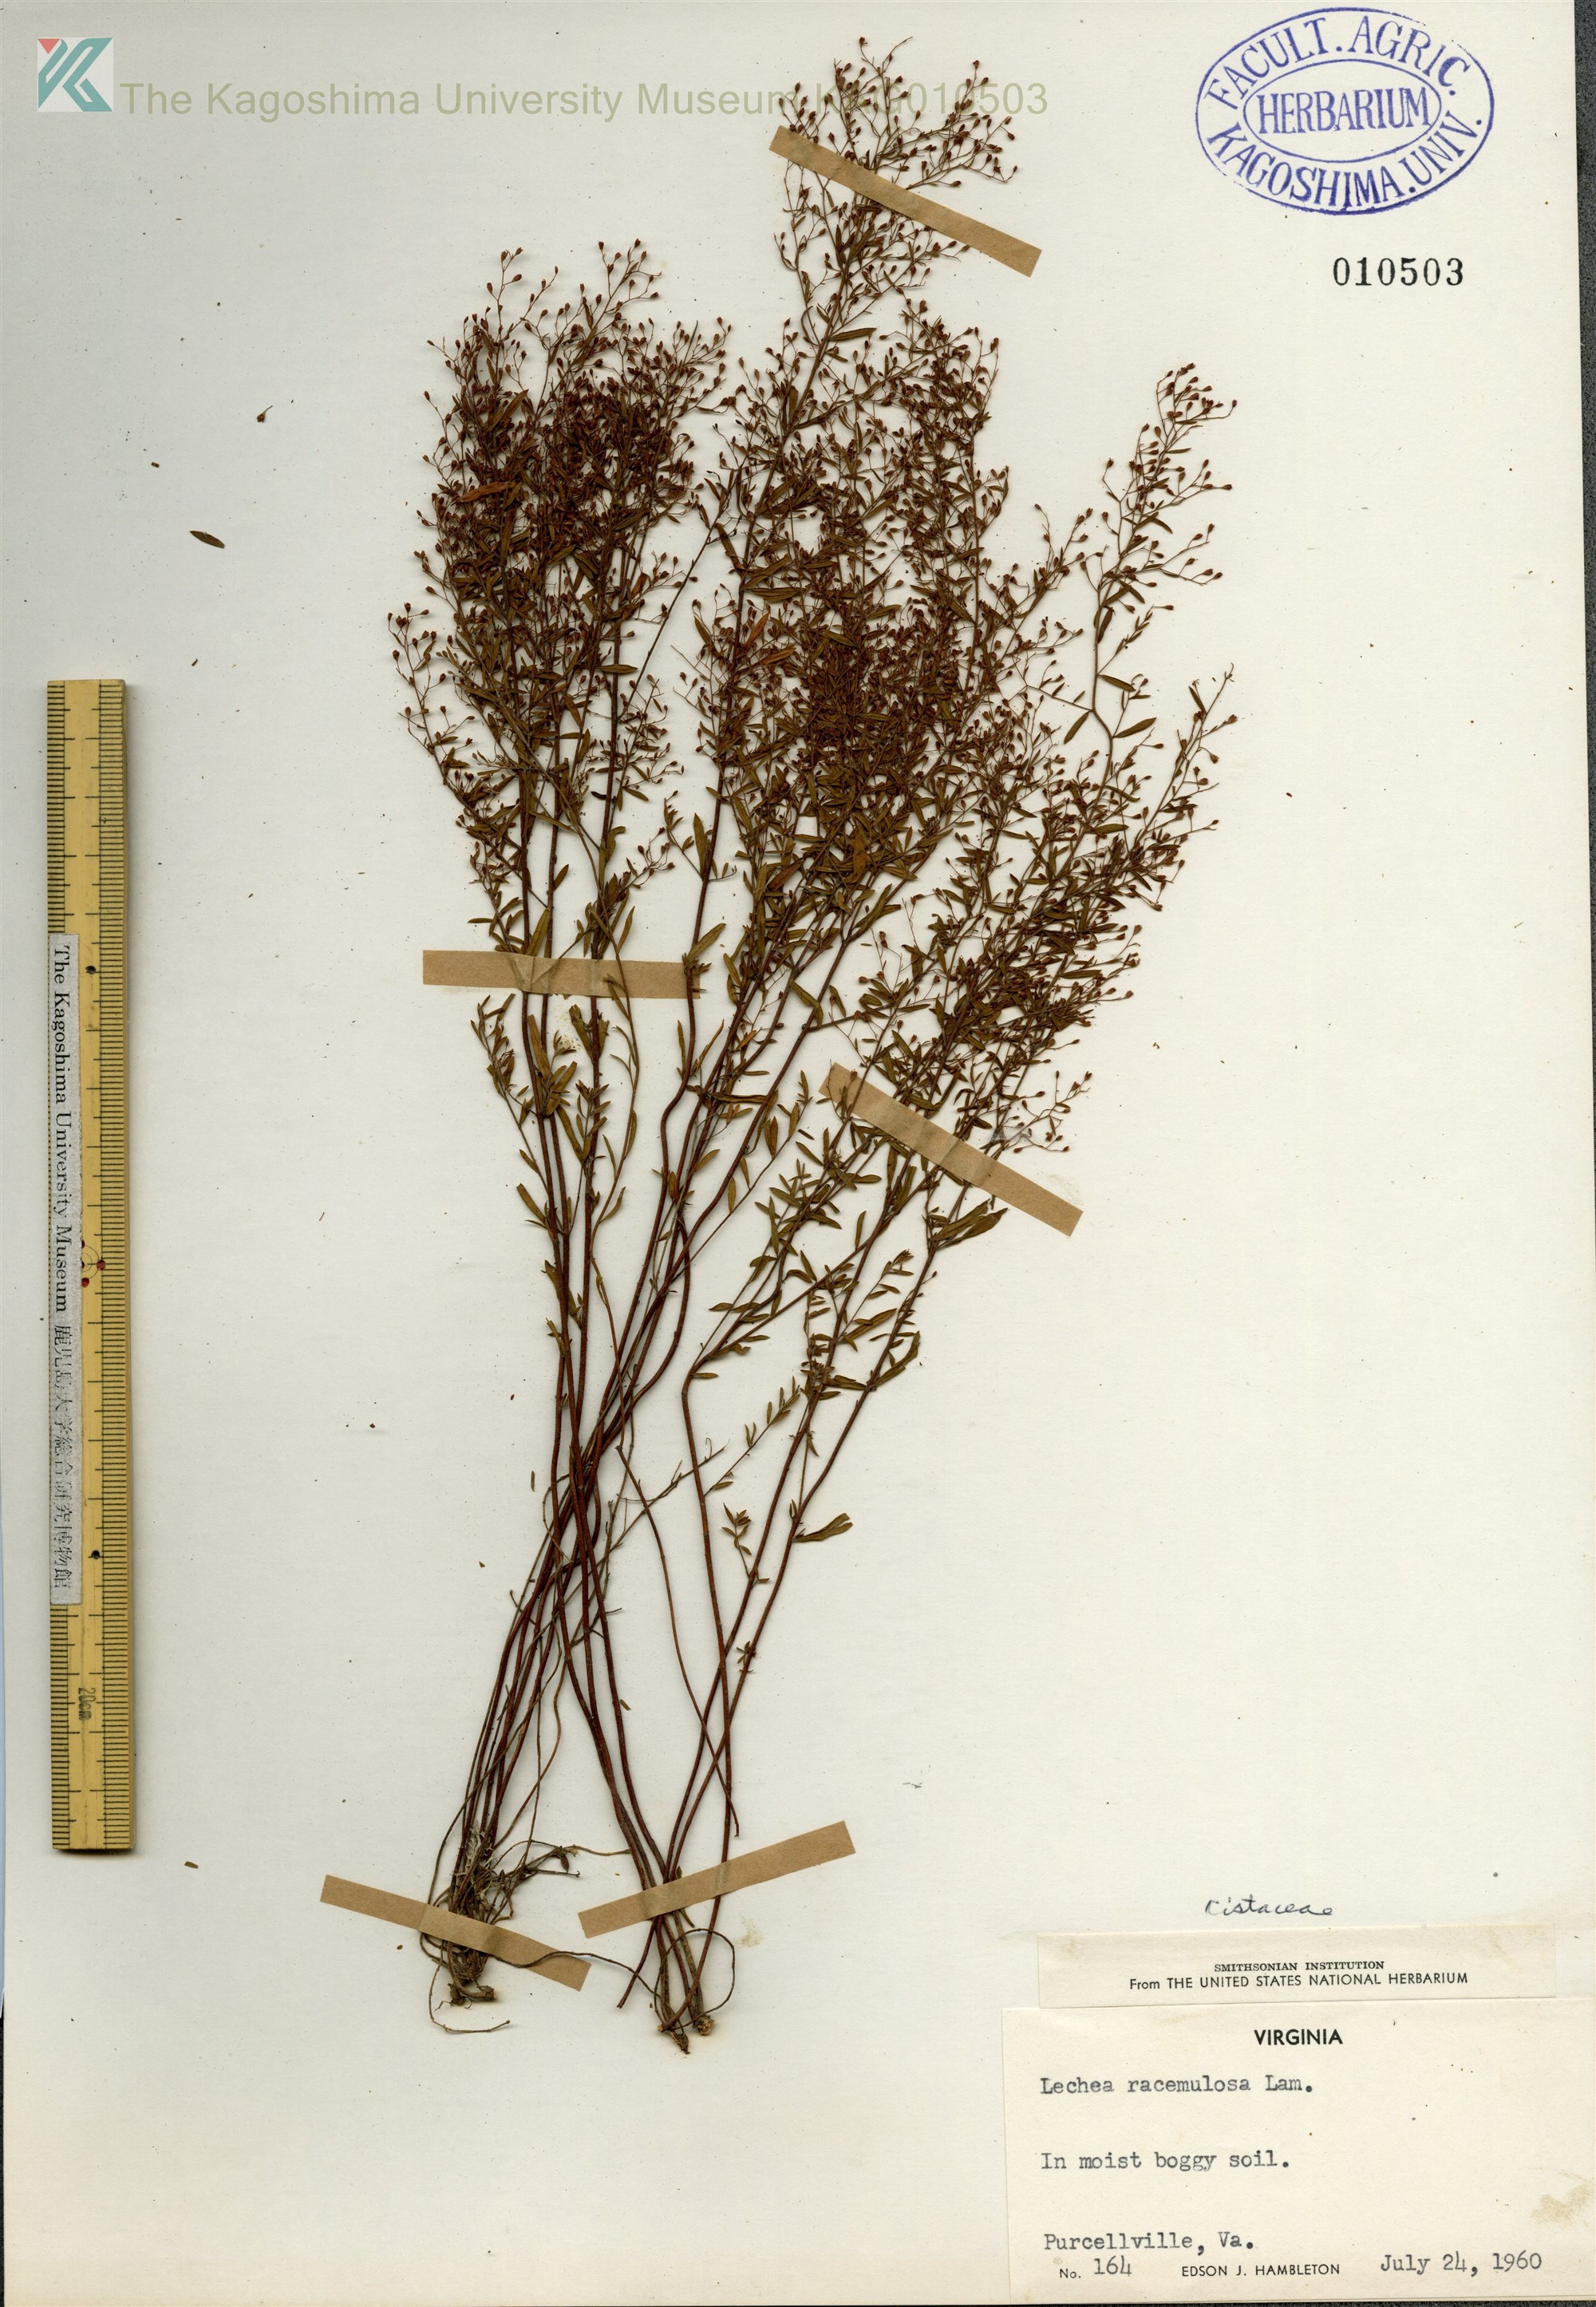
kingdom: Plantae
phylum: Tracheophyta
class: Magnoliopsida
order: Malvales
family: Cistaceae
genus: Lechea
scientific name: Lechea racemulosa
